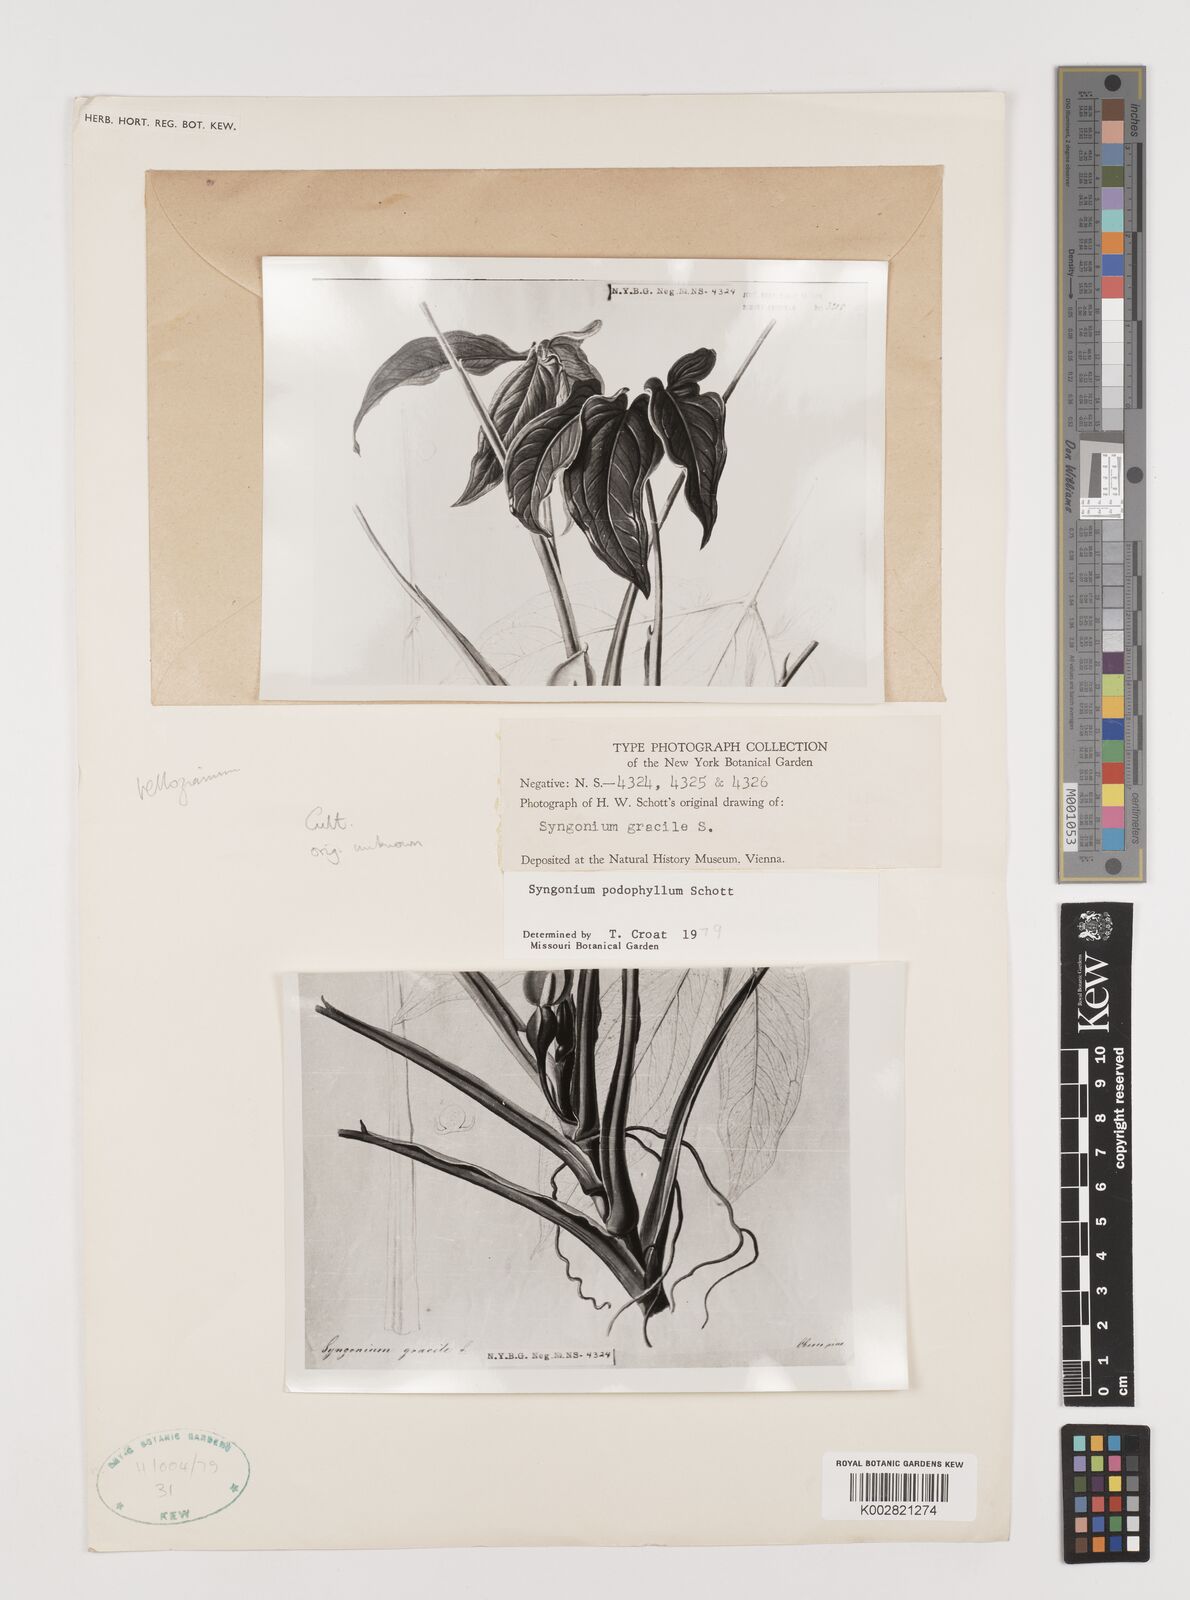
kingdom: Plantae
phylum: Tracheophyta
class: Liliopsida
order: Alismatales
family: Araceae
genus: Syngonium
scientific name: Syngonium podophyllum
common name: American evergreen
